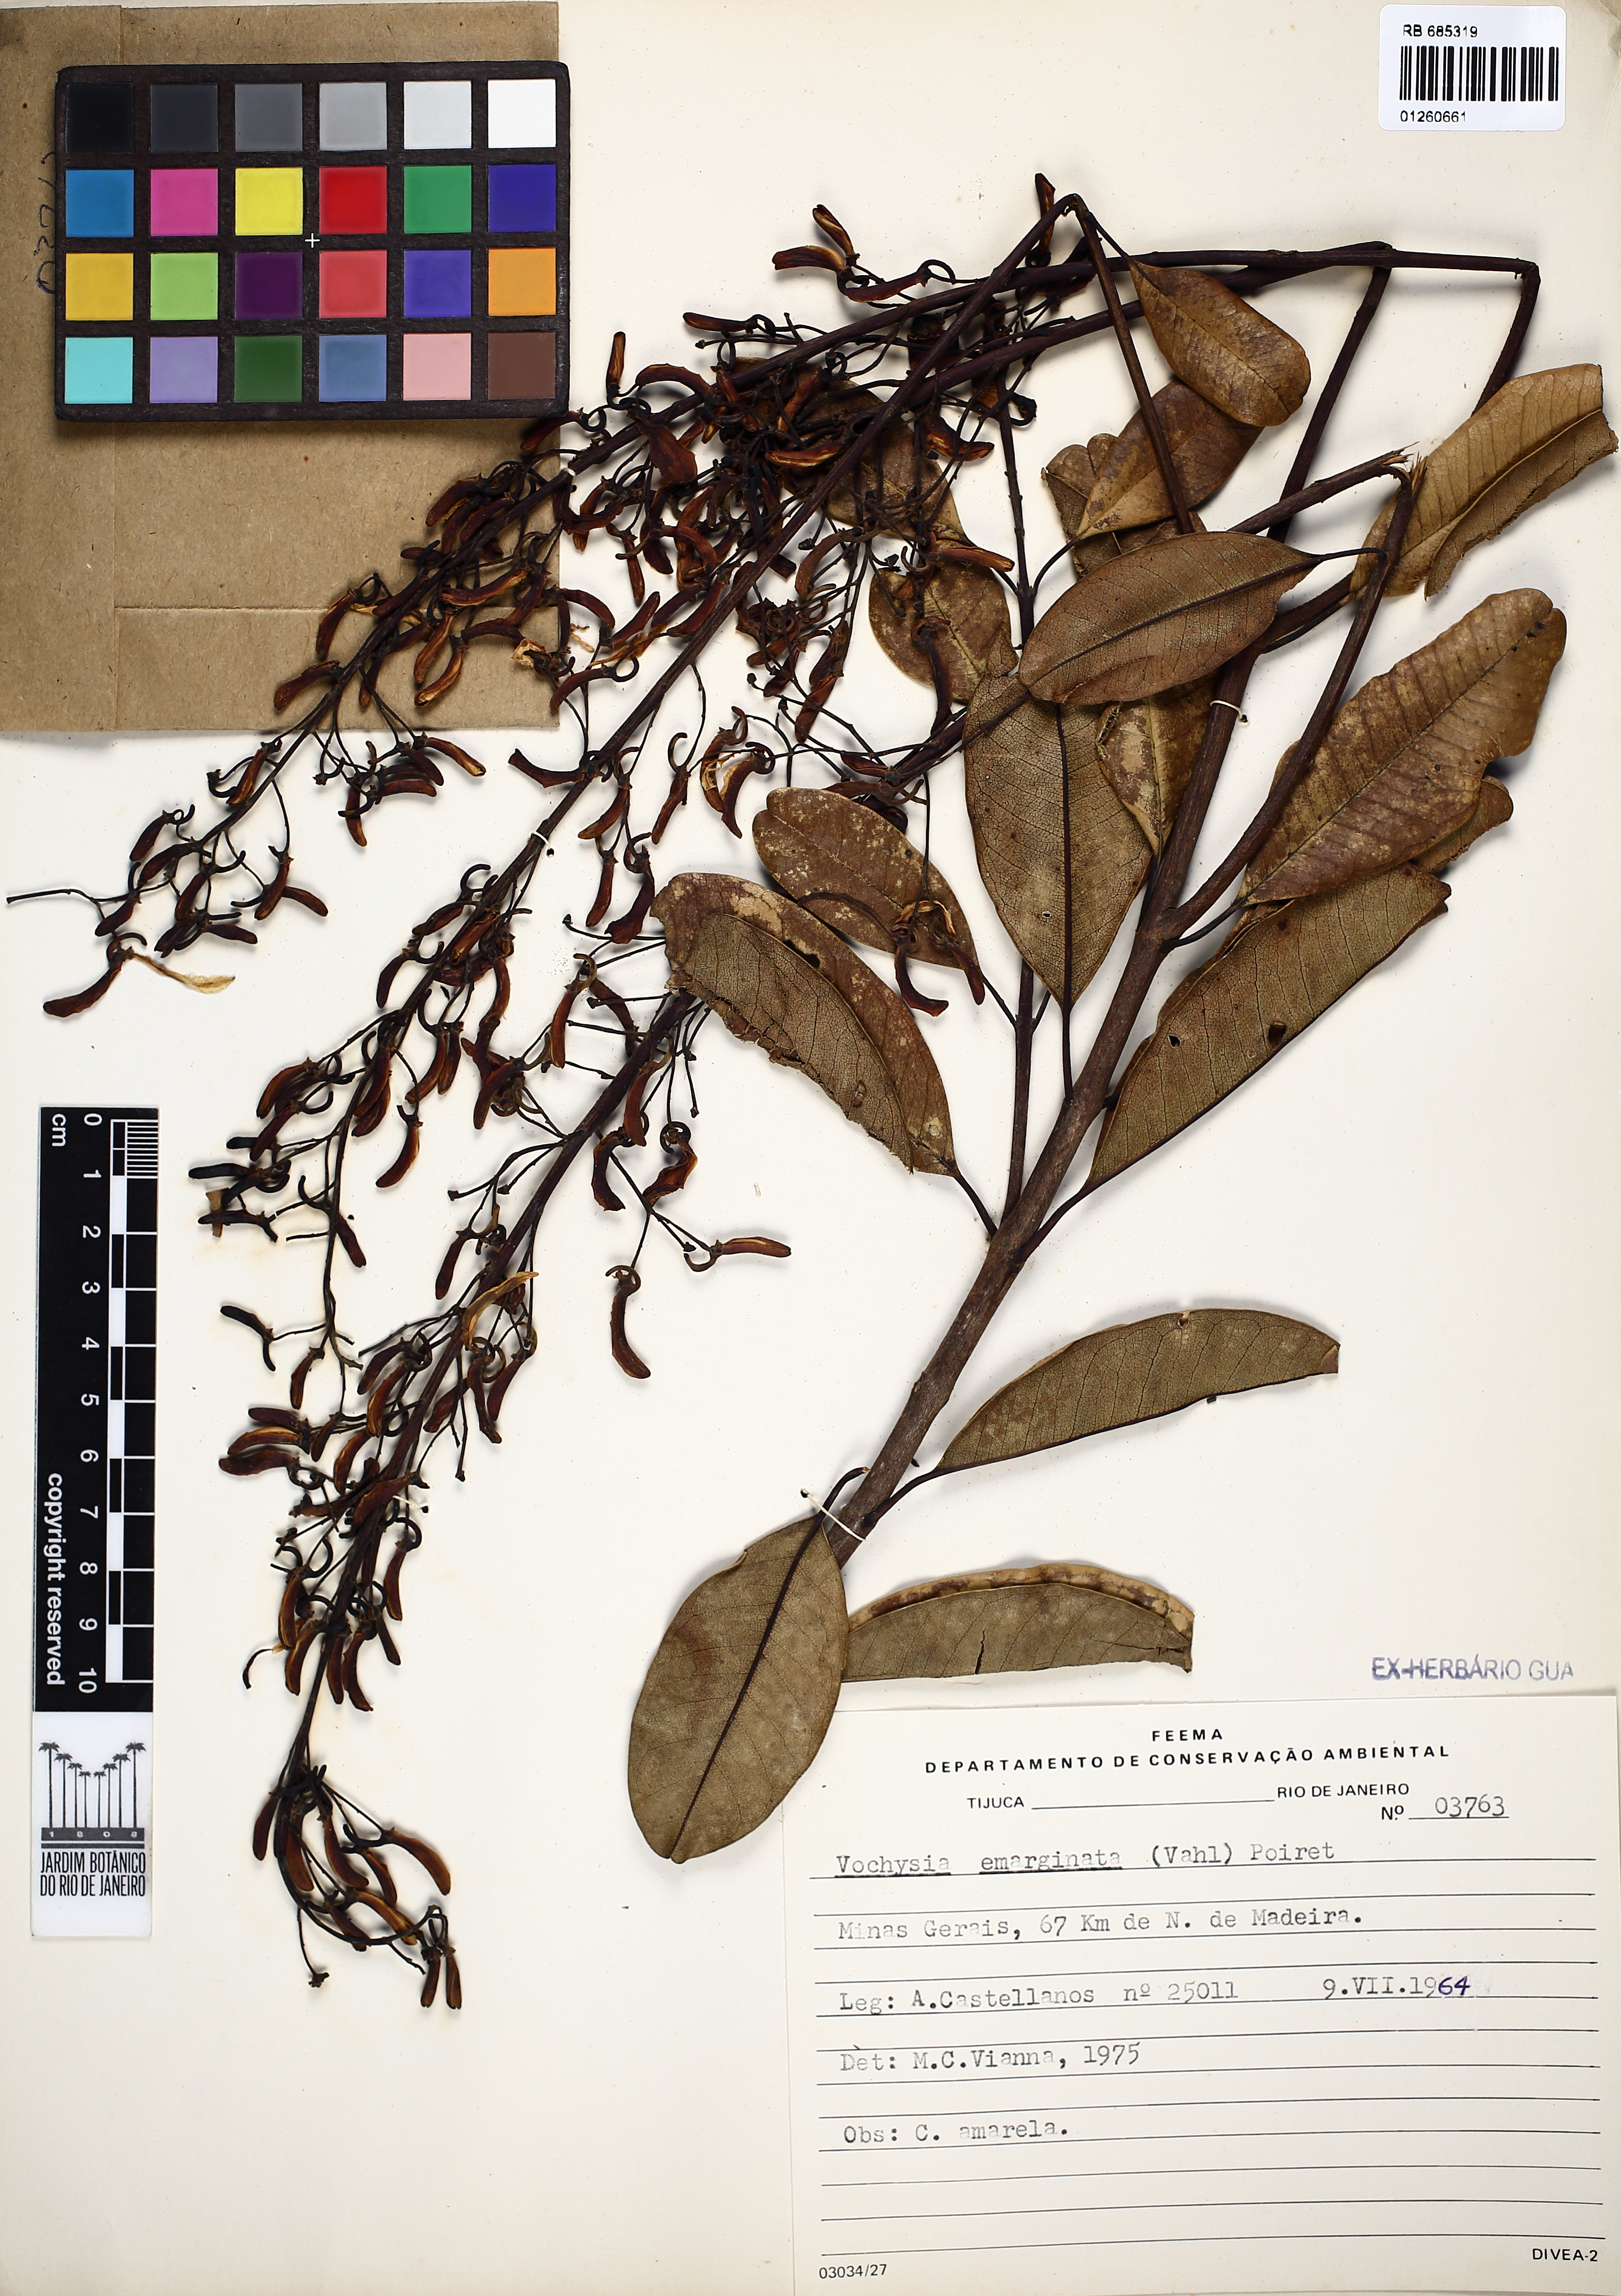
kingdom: Plantae
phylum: Tracheophyta
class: Magnoliopsida
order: Myrtales
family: Vochysiaceae
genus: Vochysia
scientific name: Vochysia emarginata
